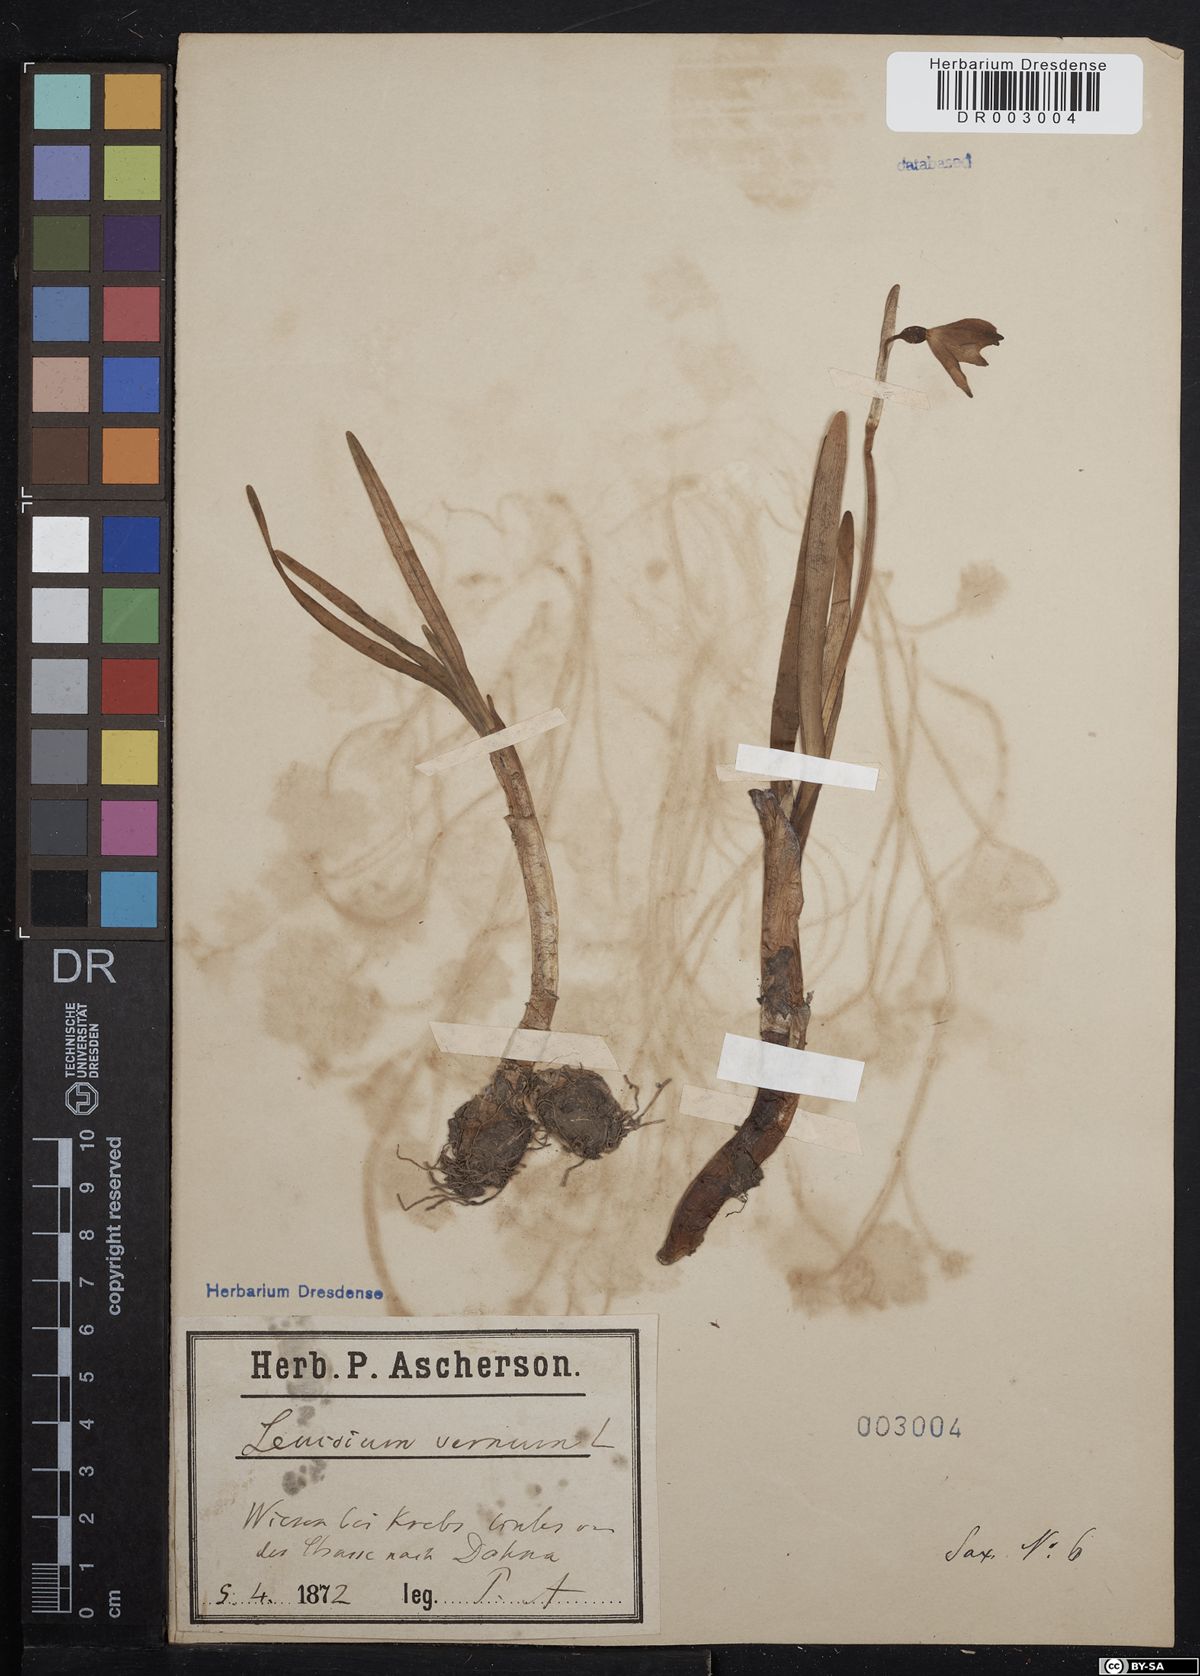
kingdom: Plantae
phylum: Tracheophyta
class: Liliopsida
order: Asparagales
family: Amaryllidaceae
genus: Leucojum
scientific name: Leucojum vernum
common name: Spring snowflake
